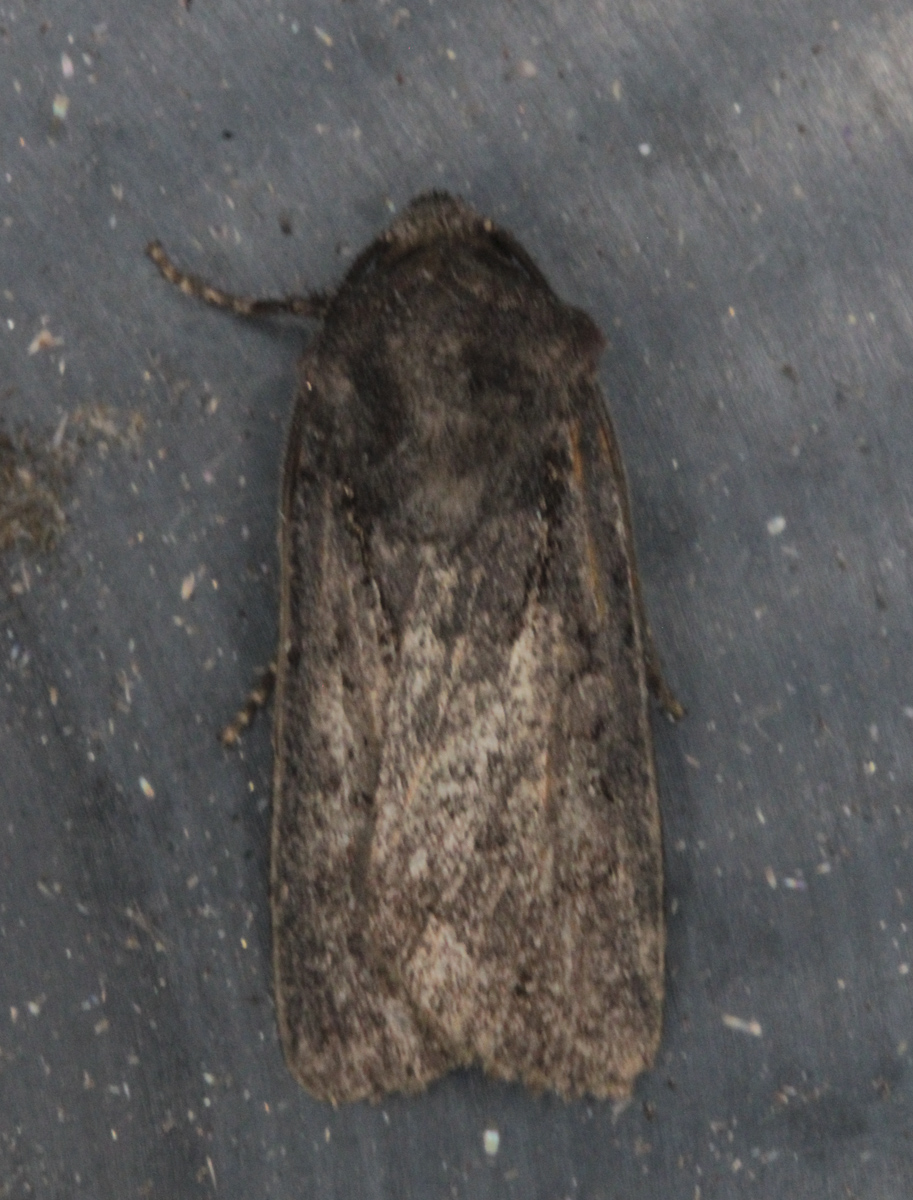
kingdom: Animalia
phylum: Arthropoda
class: Insecta
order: Lepidoptera
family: Noctuidae
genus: Euxoa
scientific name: Euxoa nigricans
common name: Garden dart
